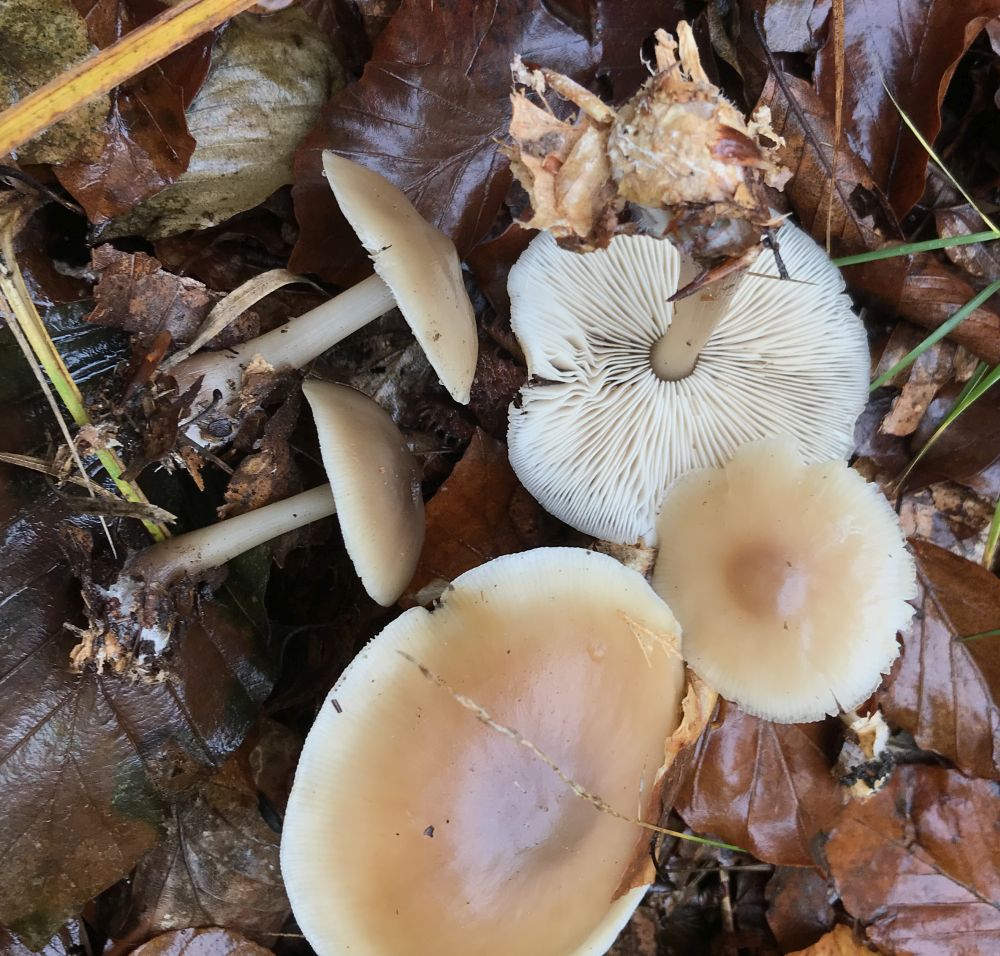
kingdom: Fungi
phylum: Basidiomycota
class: Agaricomycetes
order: Agaricales
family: Omphalotaceae
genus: Rhodocollybia
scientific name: Rhodocollybia asema
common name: horngrå fladhat
